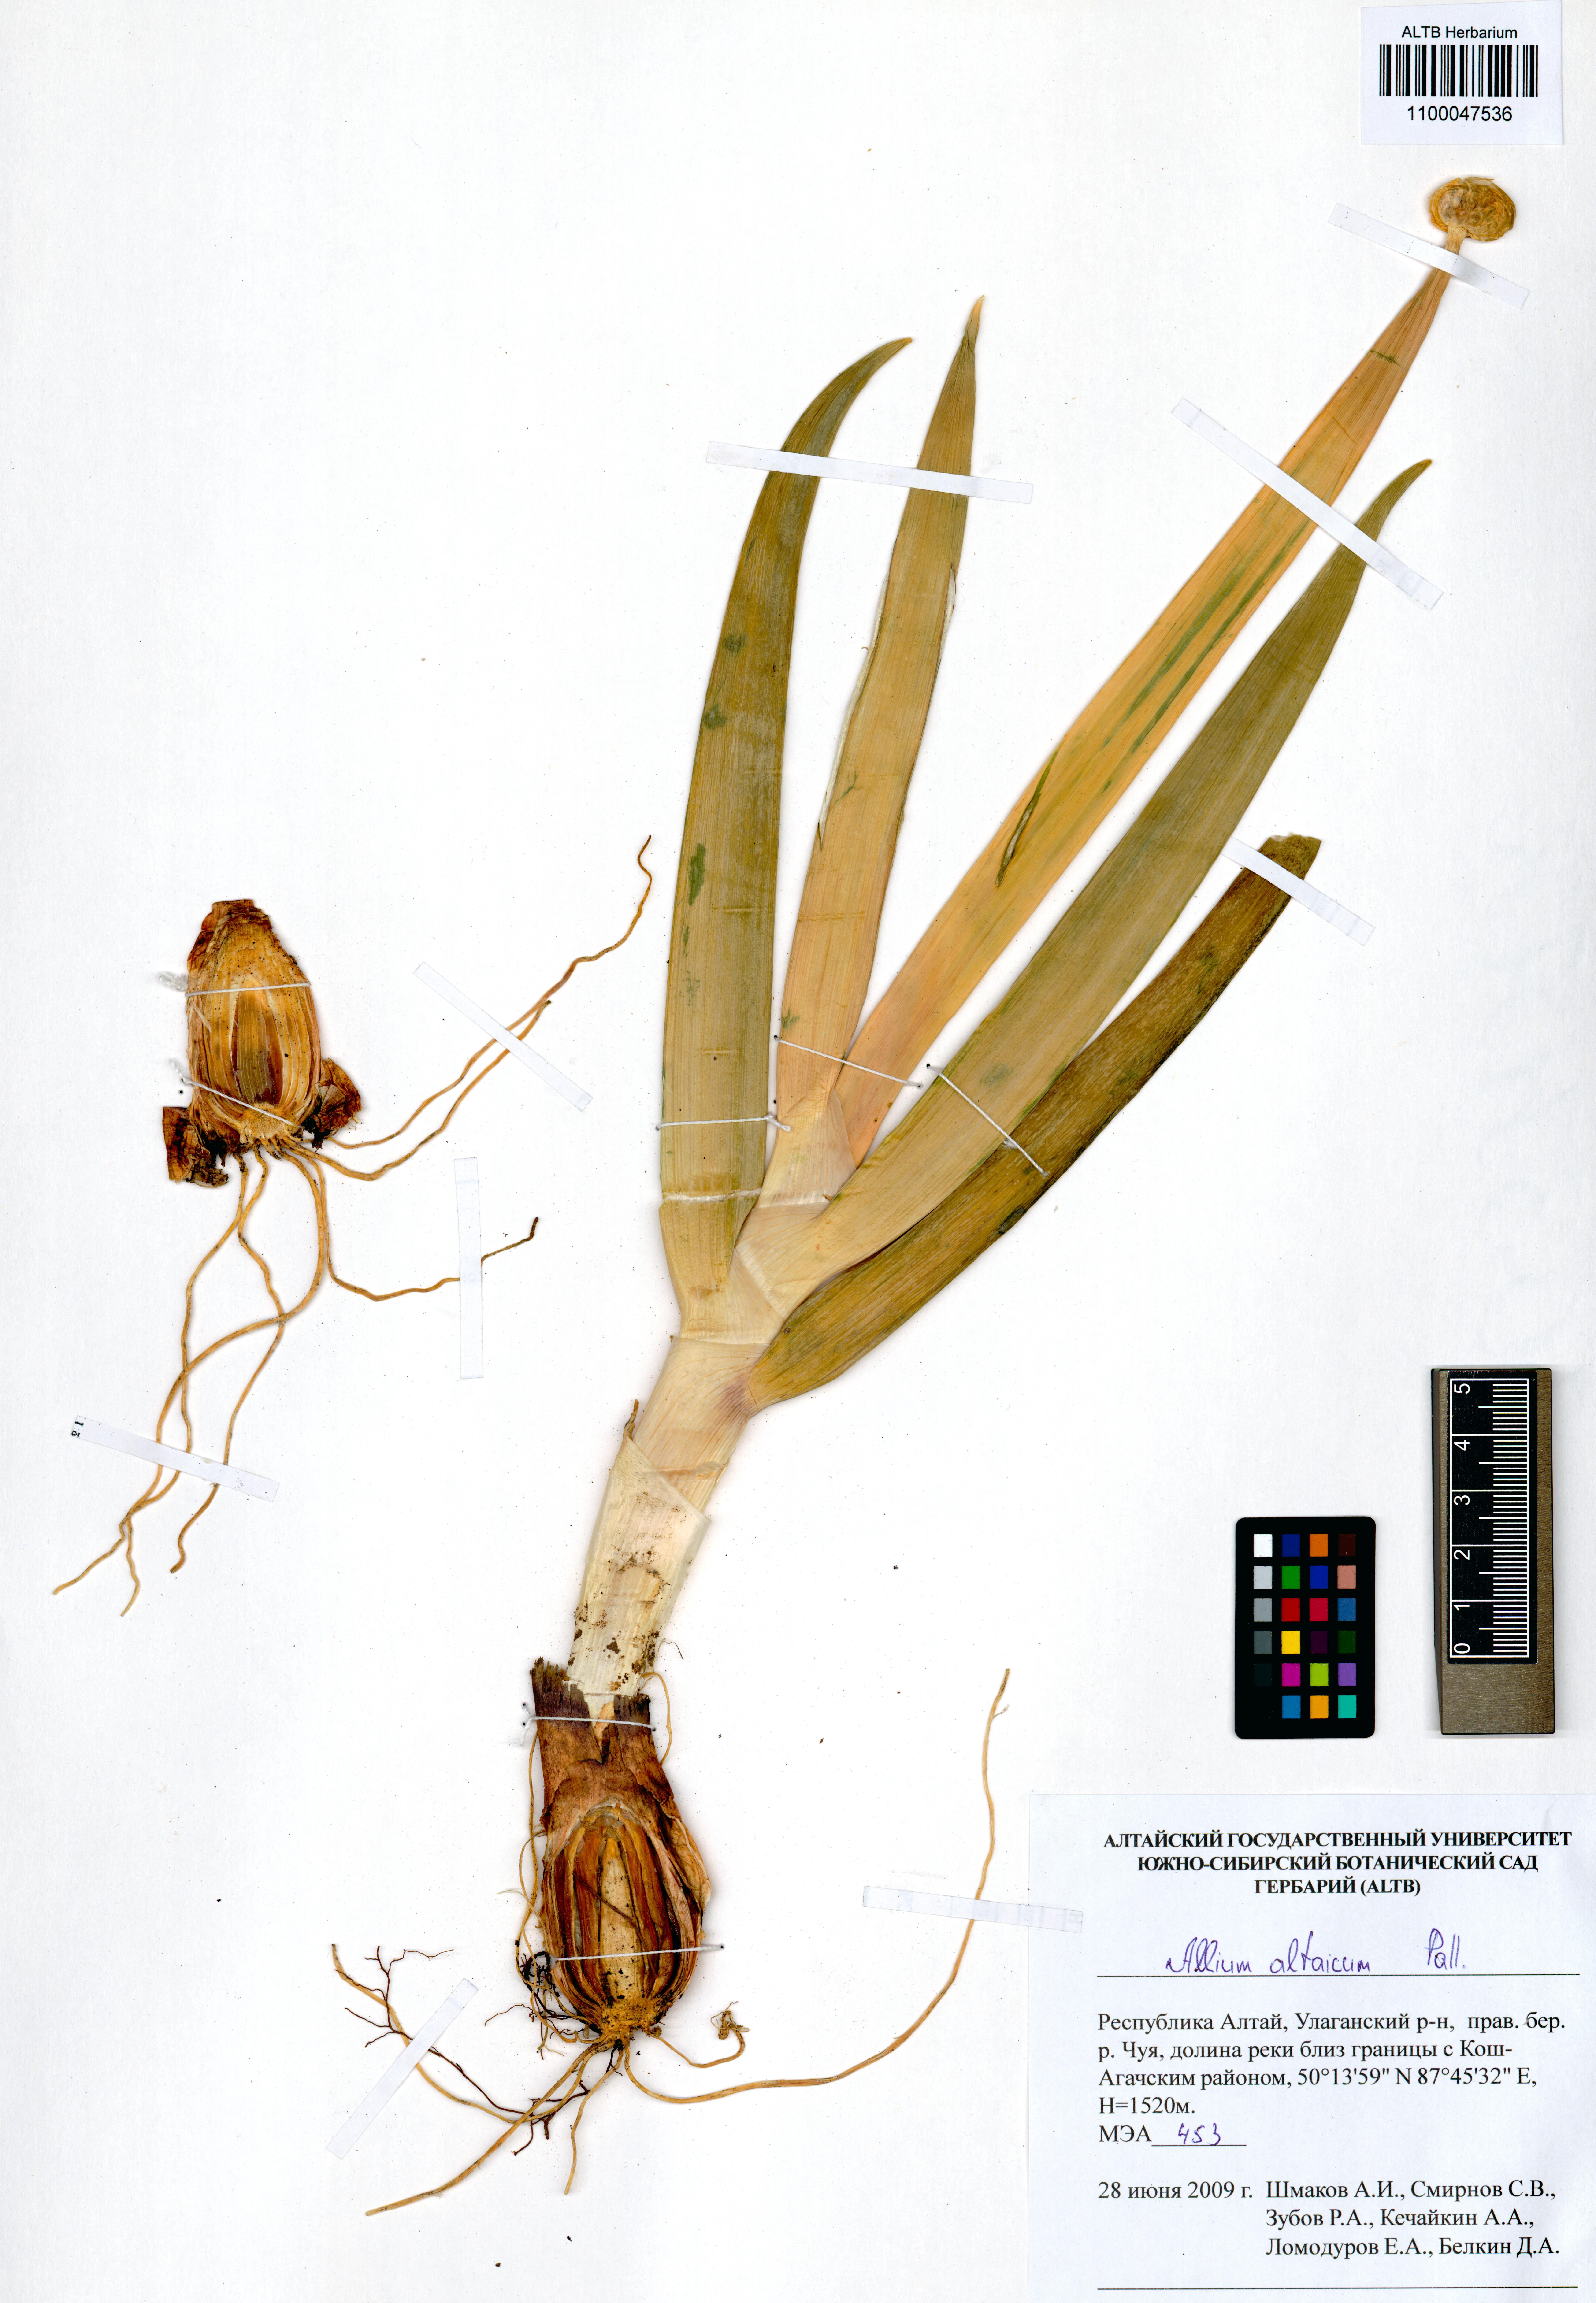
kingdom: Plantae
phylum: Tracheophyta
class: Liliopsida
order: Asparagales
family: Amaryllidaceae
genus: Allium
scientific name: Allium altaicum
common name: Altai onion
